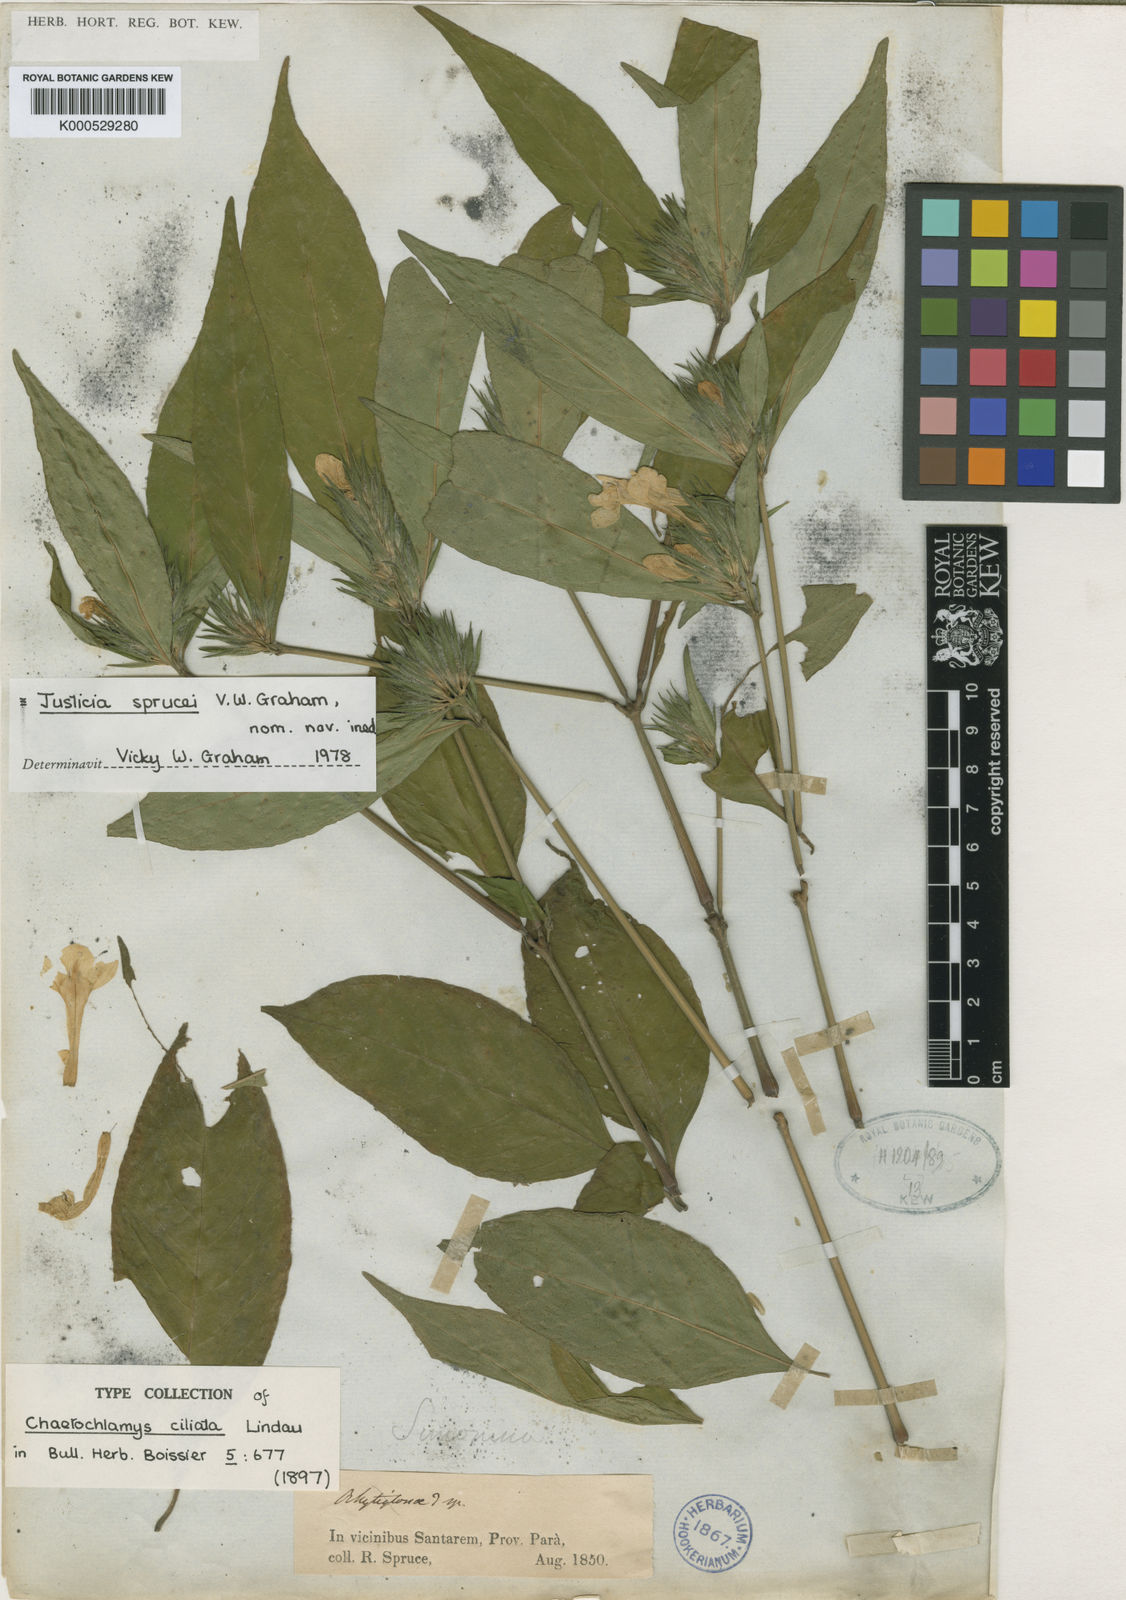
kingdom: Plantae
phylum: Tracheophyta
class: Magnoliopsida
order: Lamiales
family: Acanthaceae
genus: Justicia
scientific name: Justicia sprucei
